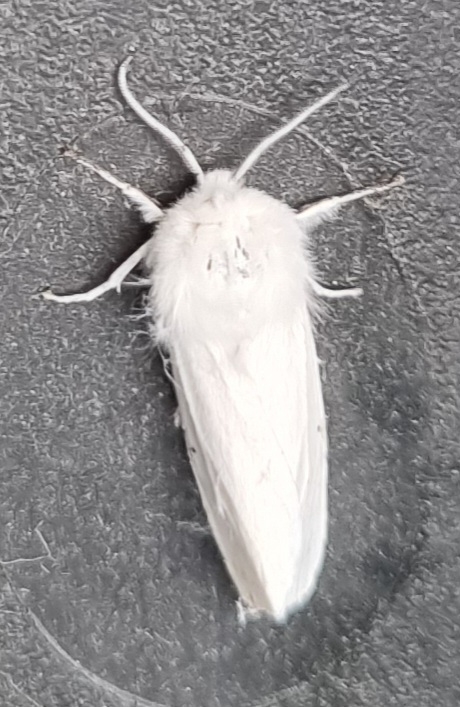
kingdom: Animalia
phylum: Arthropoda
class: Insecta
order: Lepidoptera
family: Erebidae
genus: Spilosoma
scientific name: Spilosoma urticae
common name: Hvid tigerspinder
